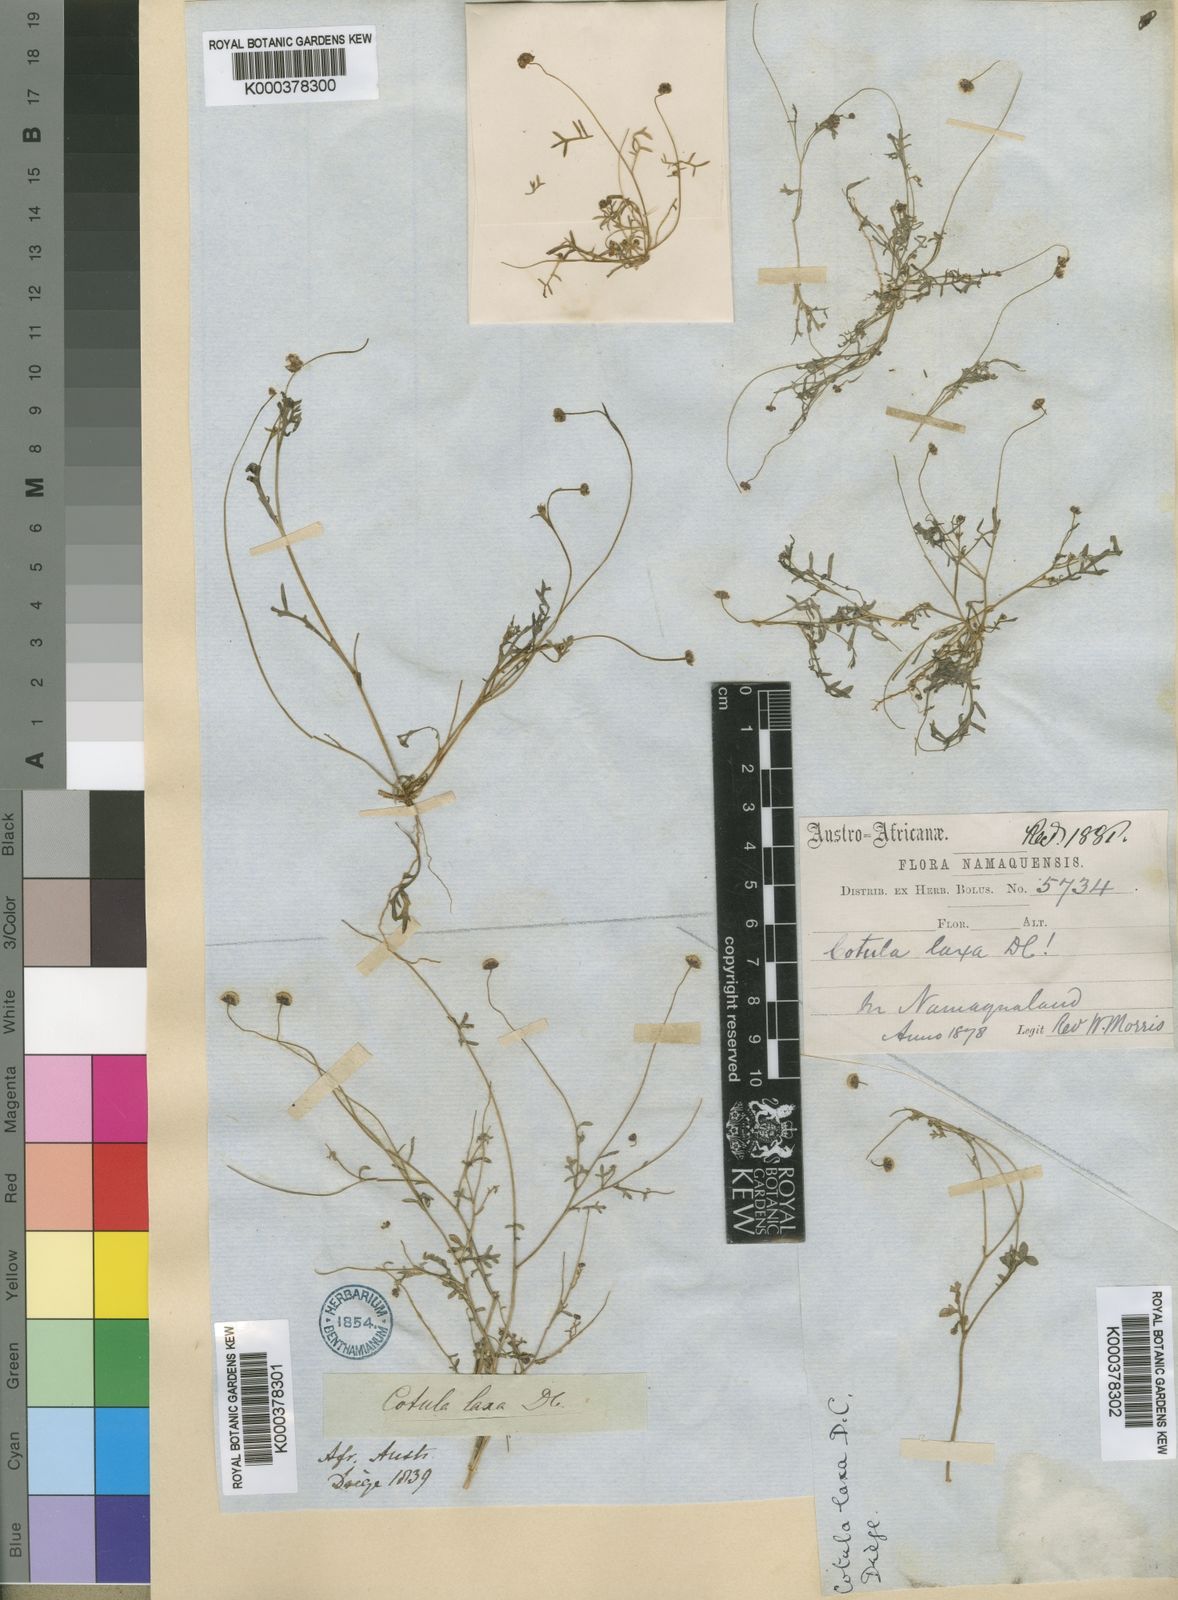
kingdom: Plantae
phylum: Tracheophyta
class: Magnoliopsida
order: Asterales
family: Asteraceae
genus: Cotula
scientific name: Cotula laxa
